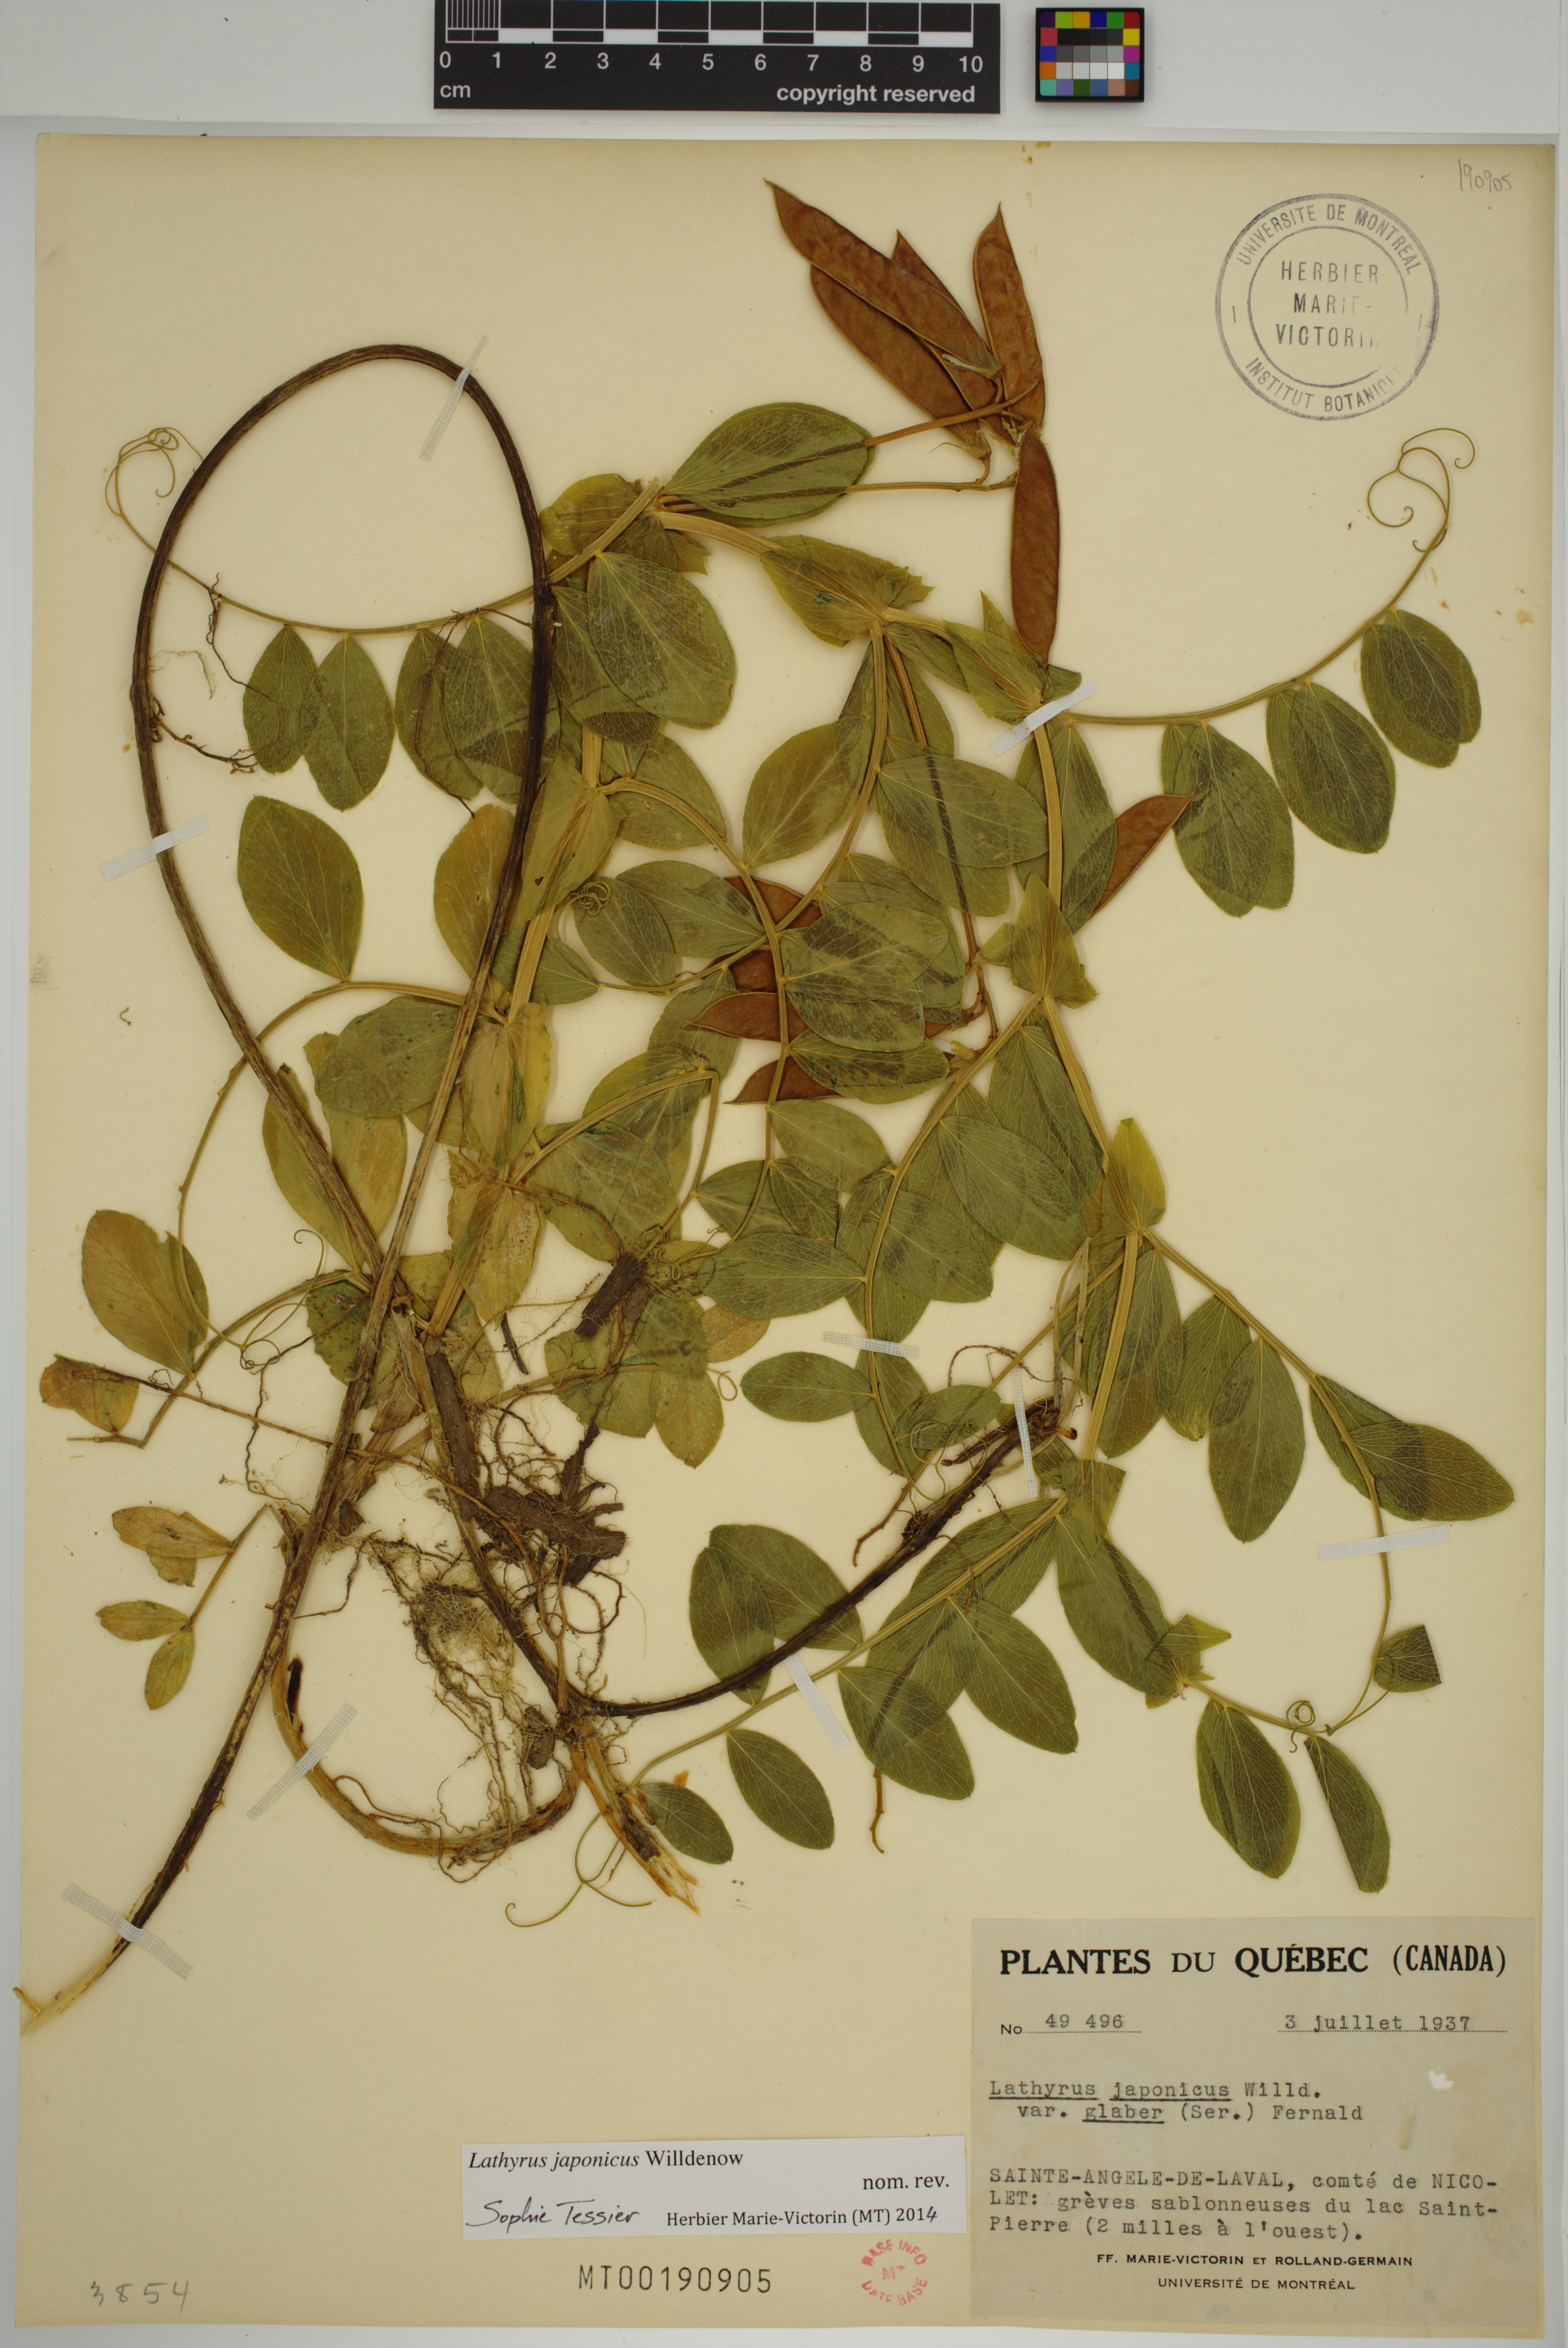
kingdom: Plantae
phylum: Tracheophyta
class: Magnoliopsida
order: Fabales
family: Fabaceae
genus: Lathyrus
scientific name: Lathyrus japonicus
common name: Sea pea
